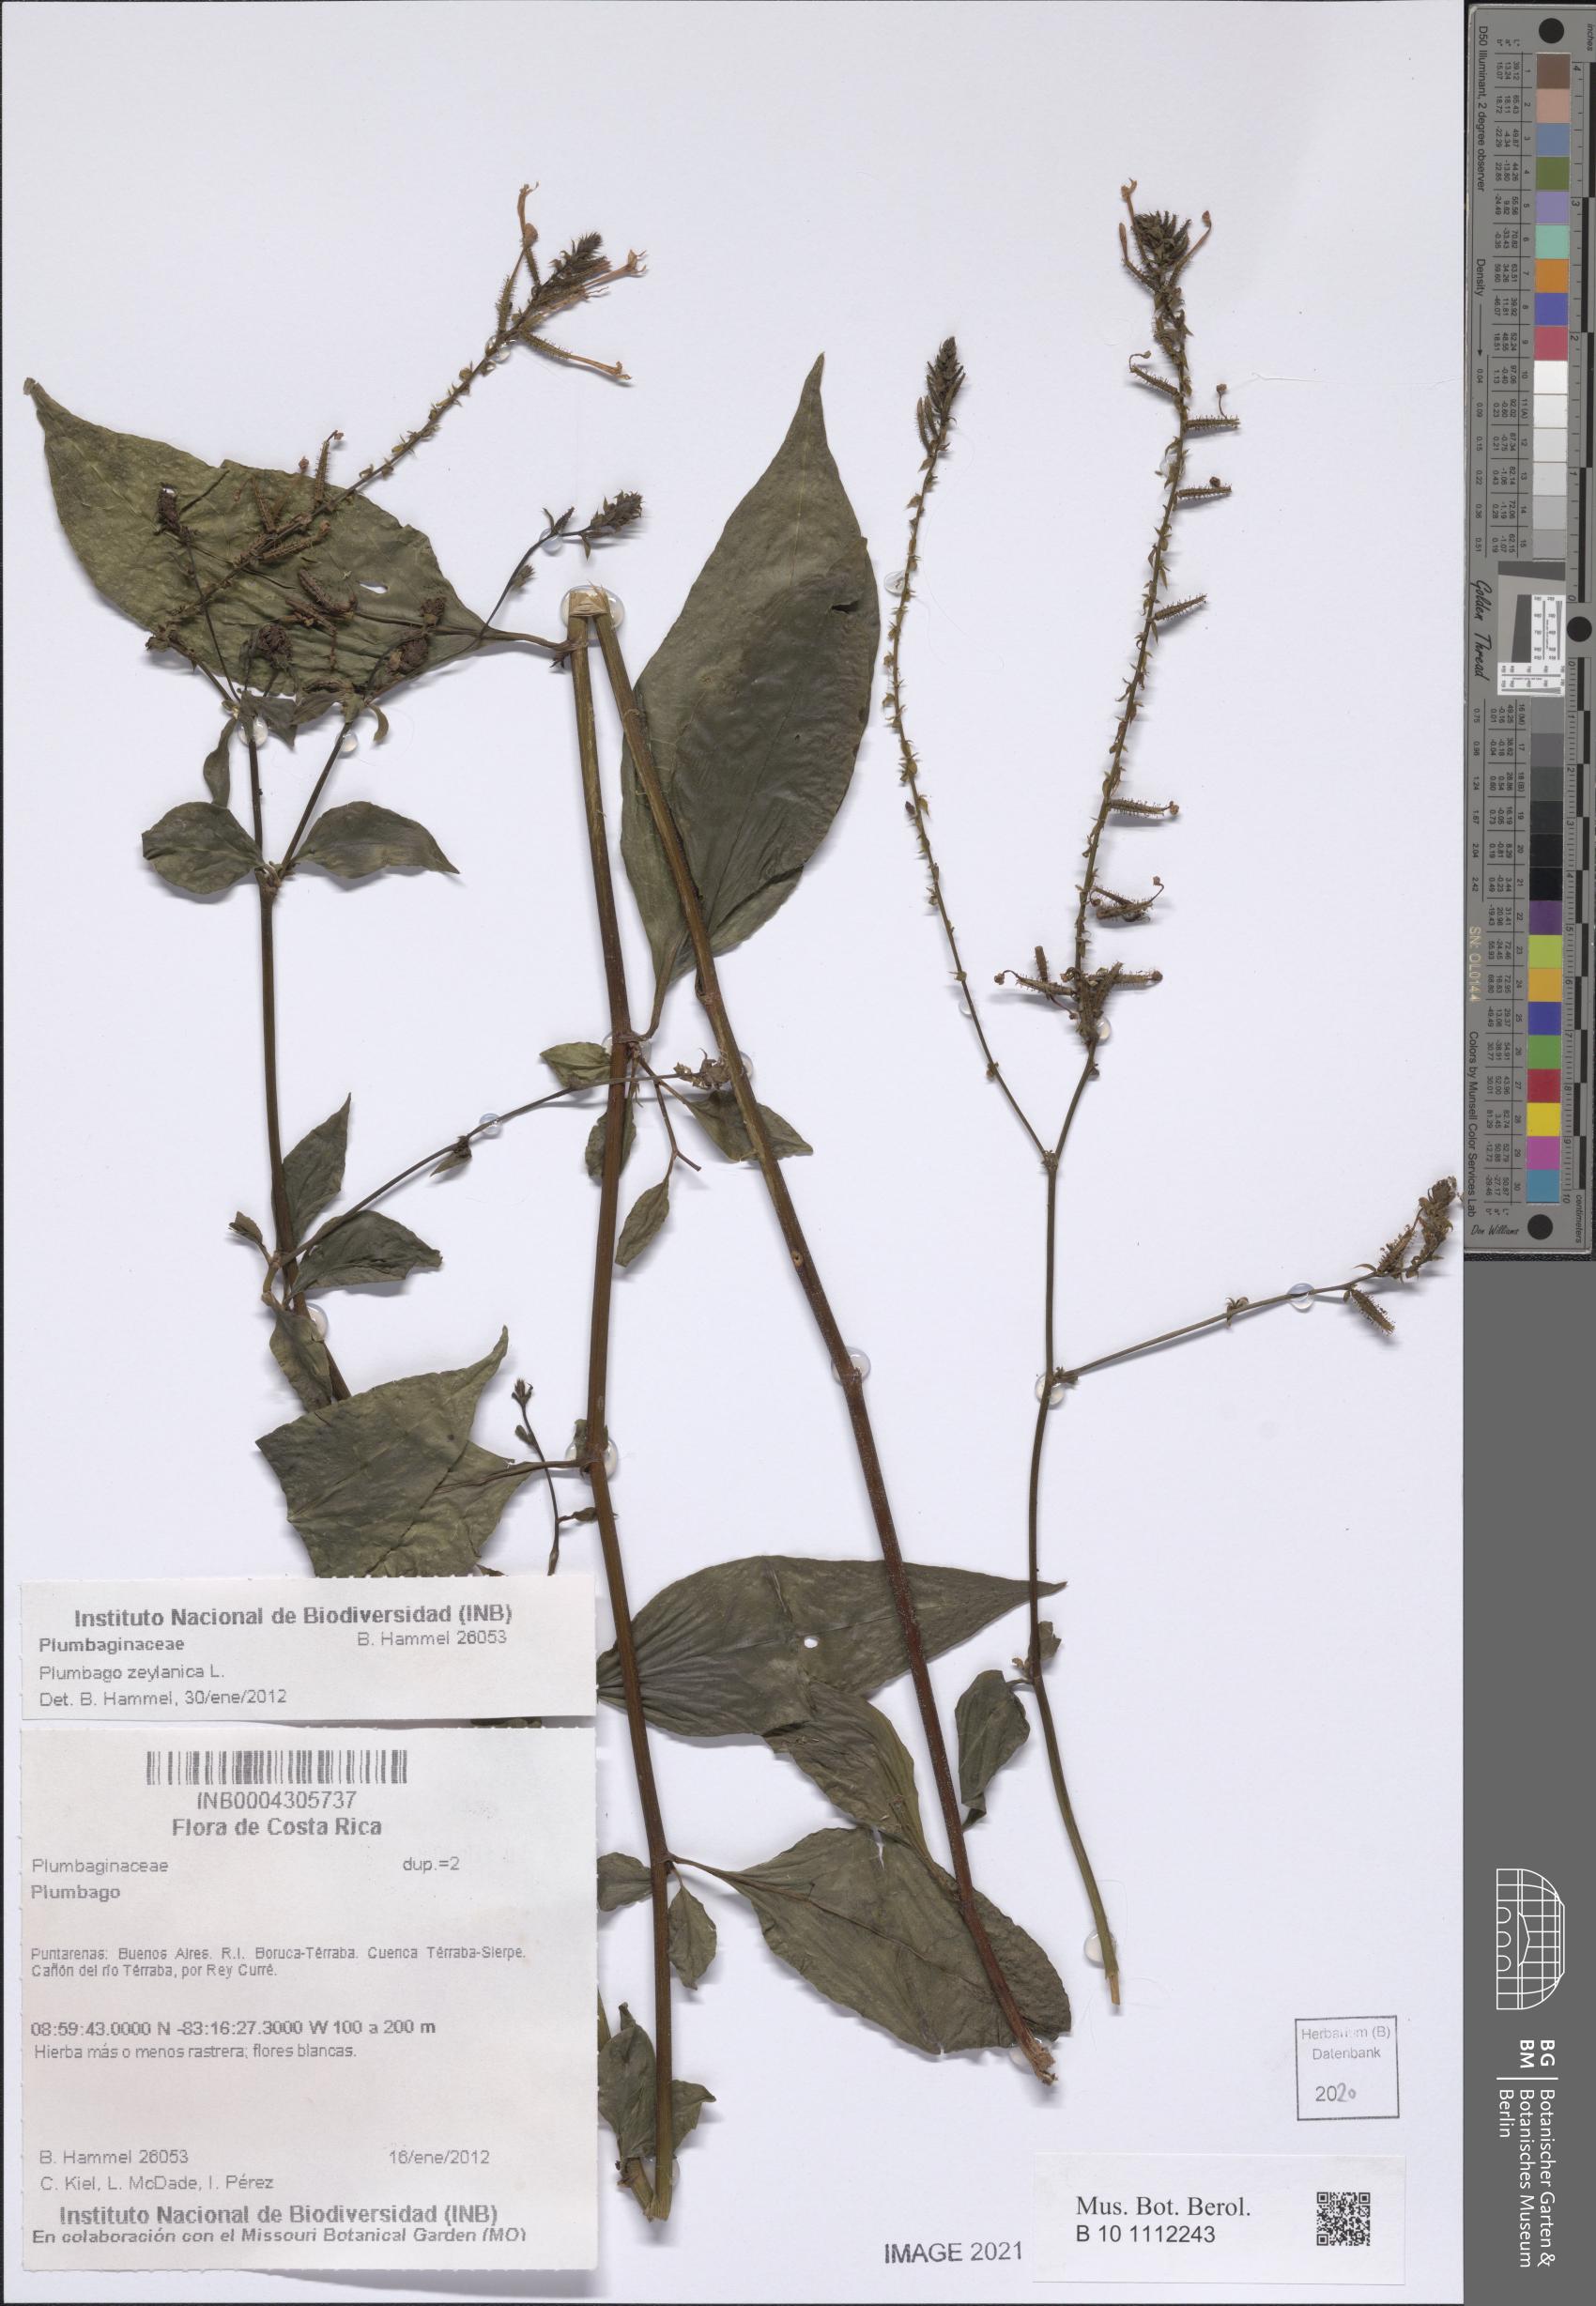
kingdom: Plantae
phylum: Tracheophyta
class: Magnoliopsida
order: Caryophyllales
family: Plumbaginaceae
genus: Plumbago
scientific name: Plumbago zeylanica
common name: Doctorbush
